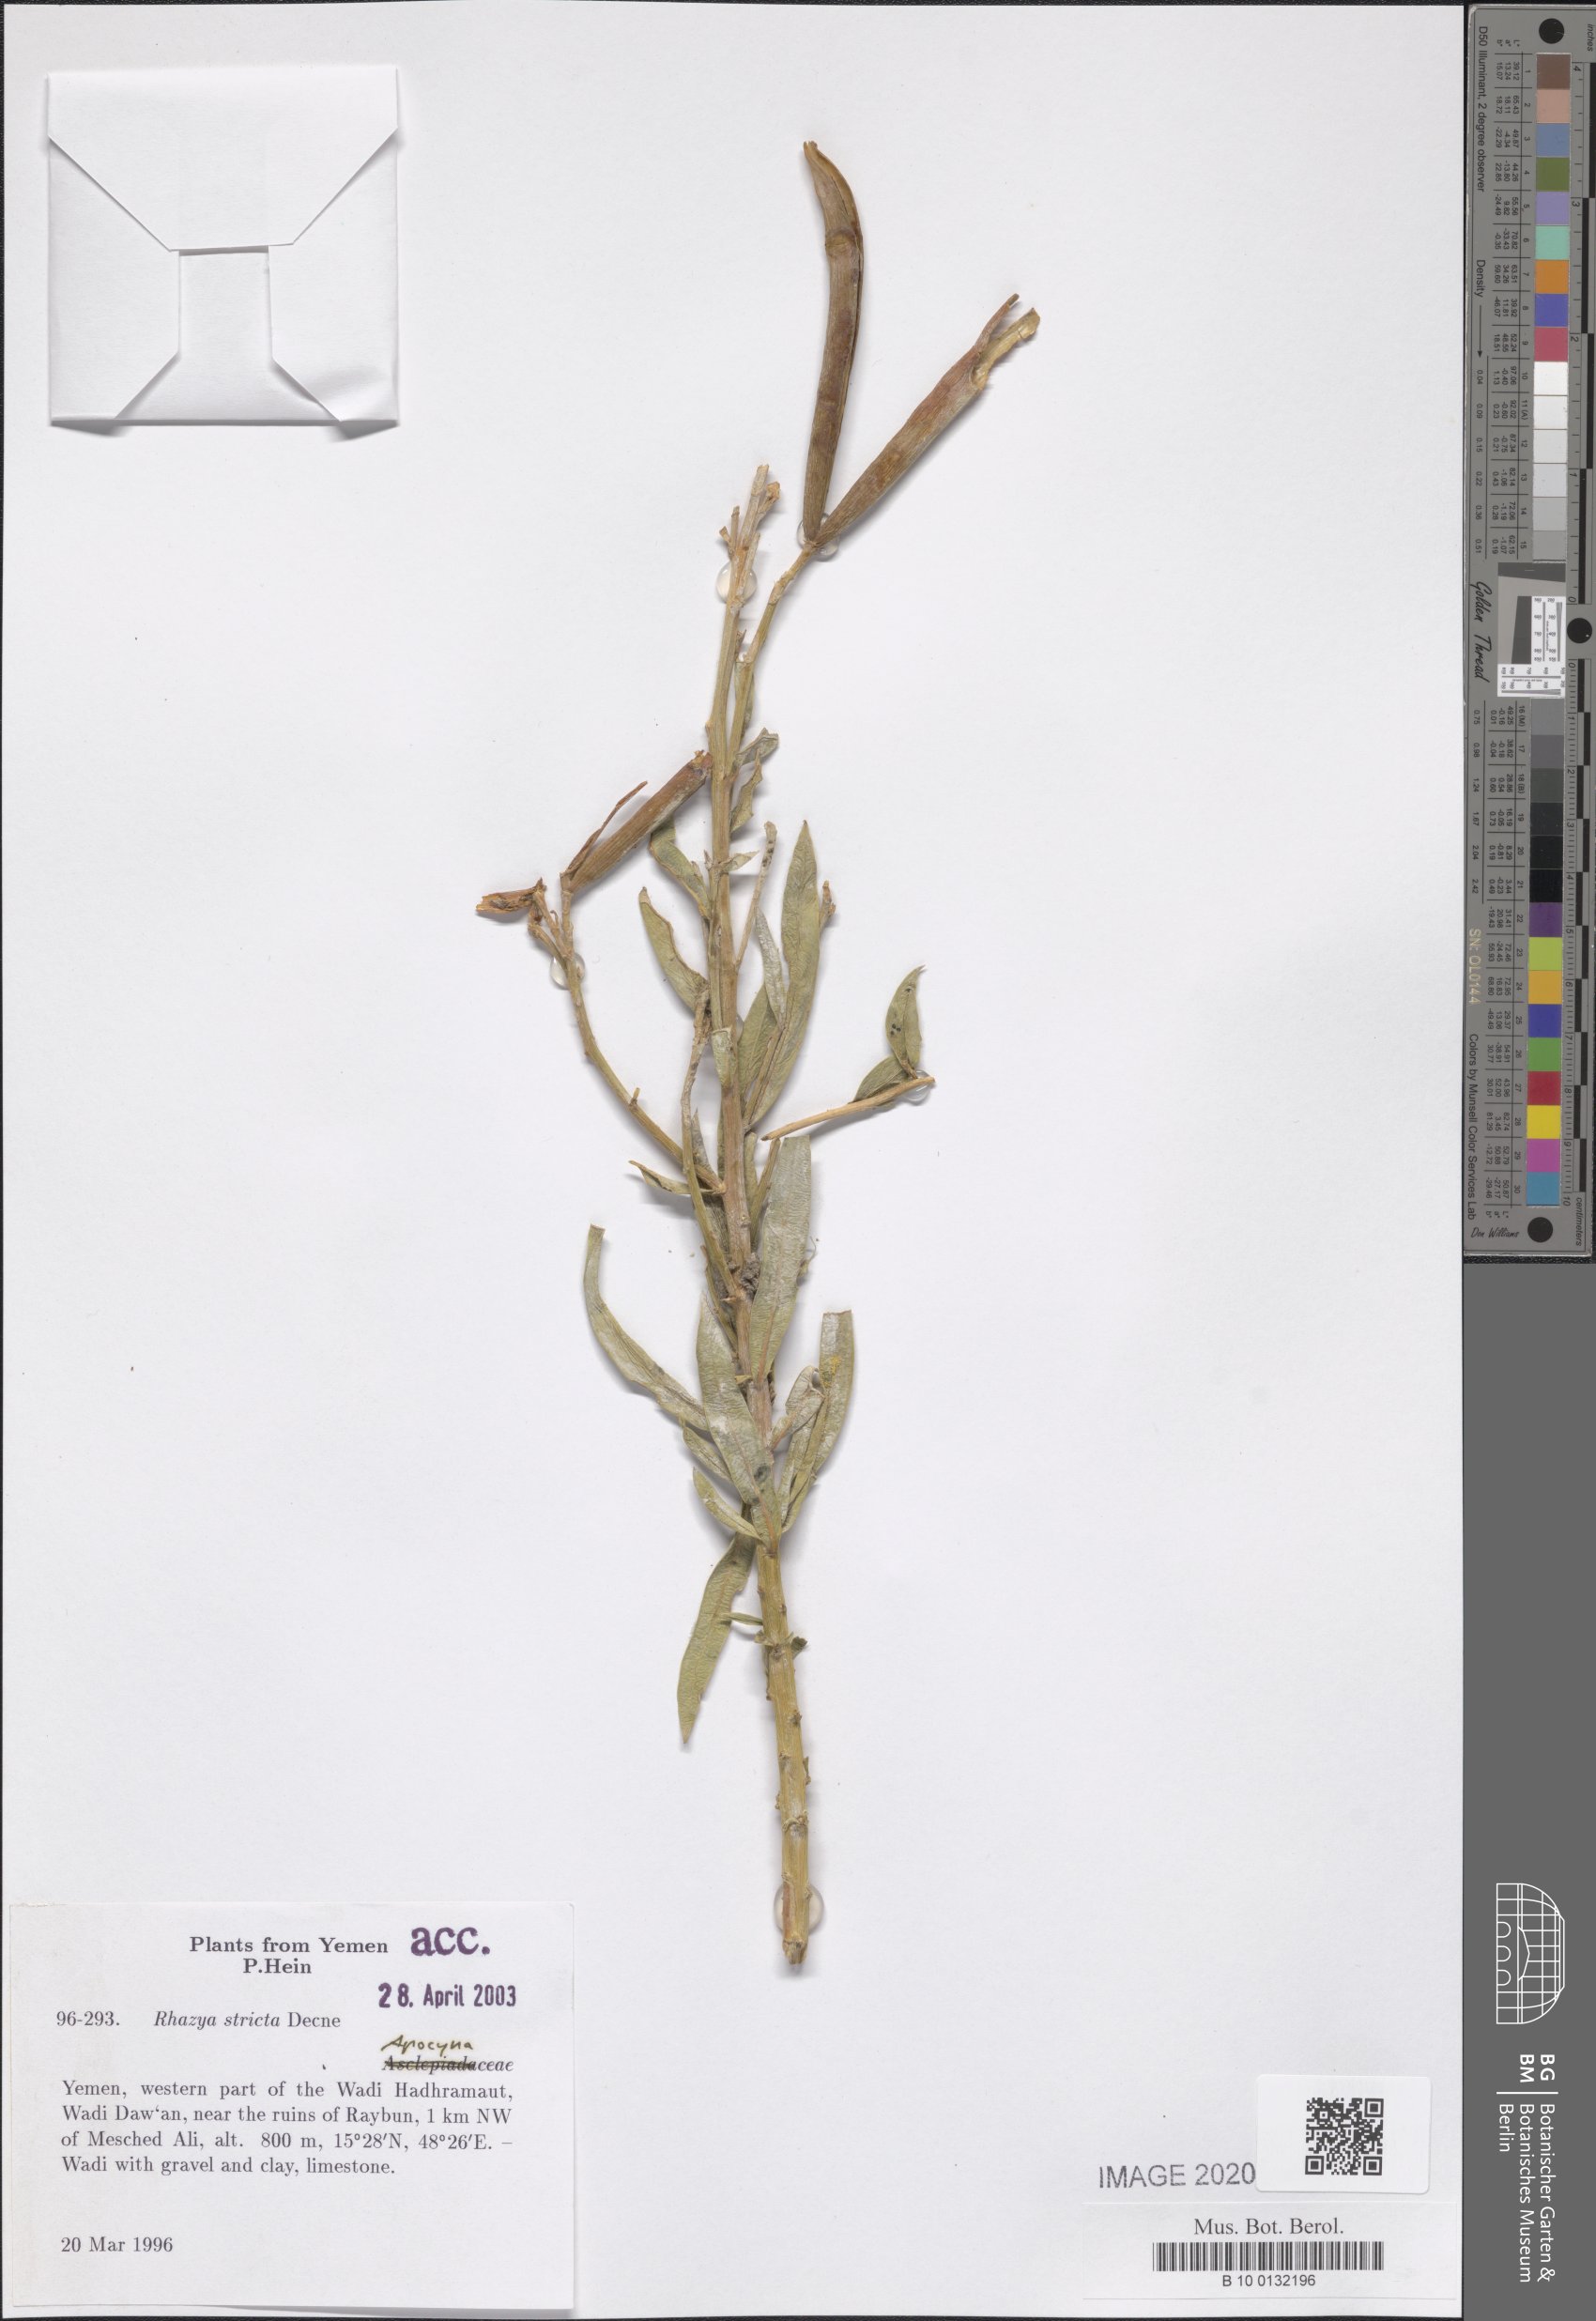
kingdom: Plantae
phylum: Tracheophyta
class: Magnoliopsida
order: Gentianales
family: Apocynaceae
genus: Rhazya
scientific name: Rhazya stricta
